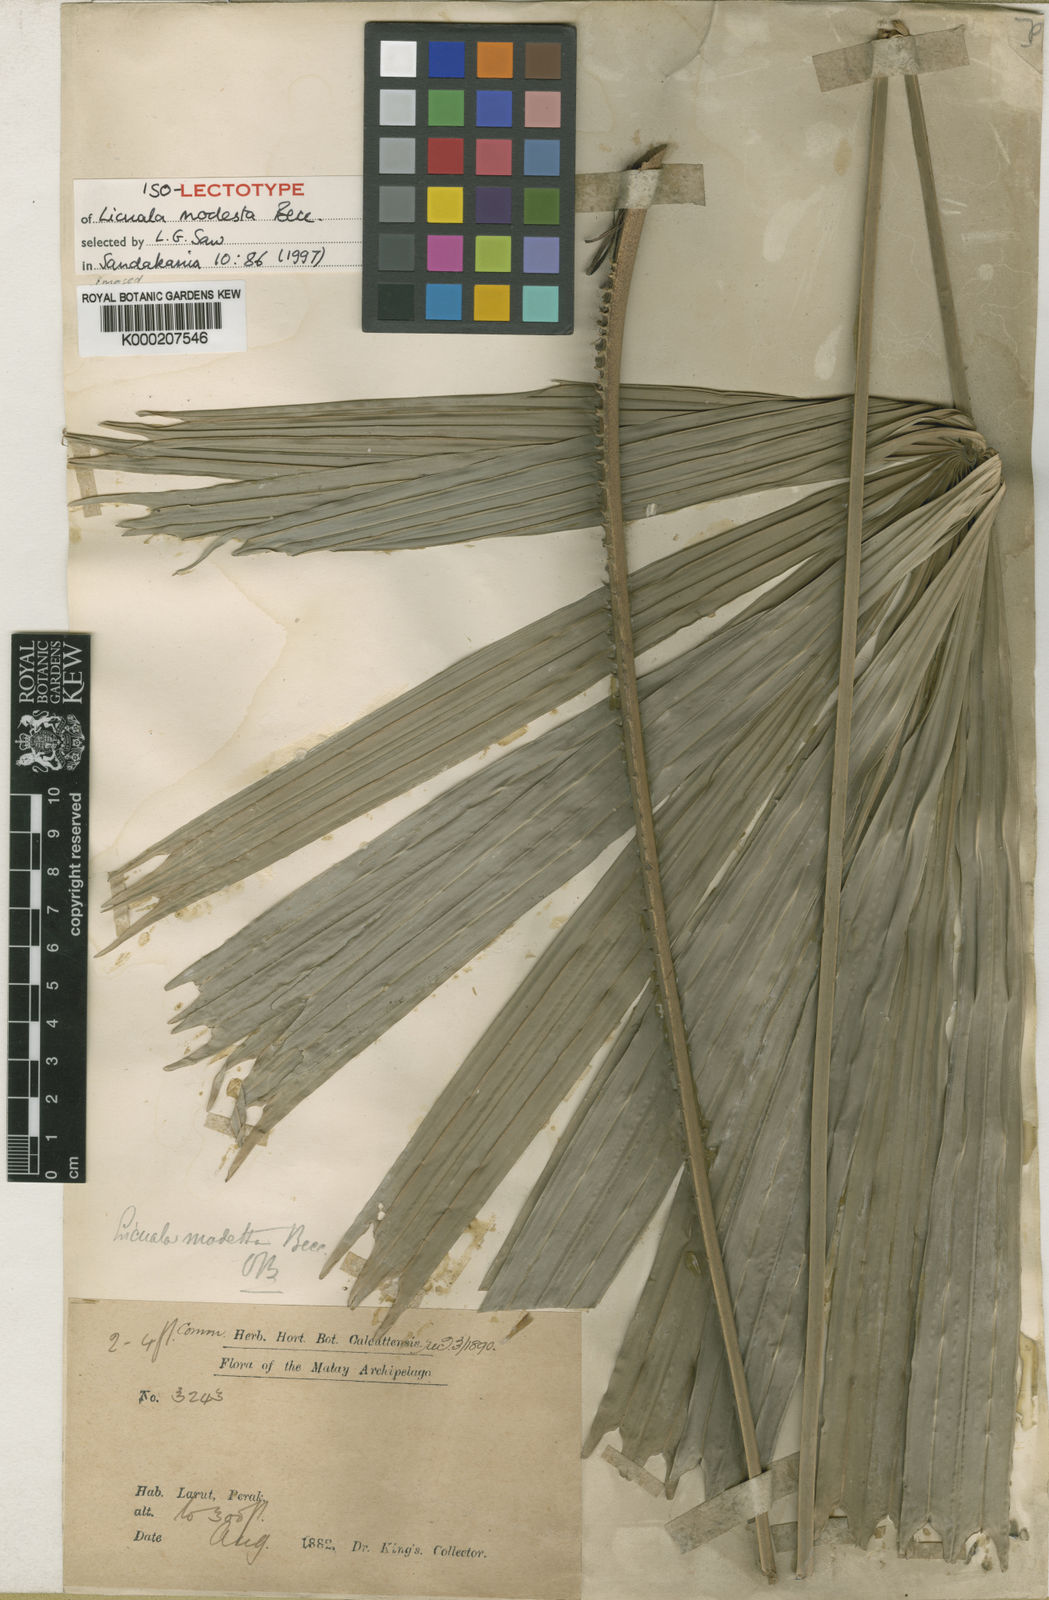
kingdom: Plantae
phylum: Tracheophyta
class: Liliopsida
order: Arecales
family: Arecaceae
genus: Licuala
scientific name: Licuala modesta
